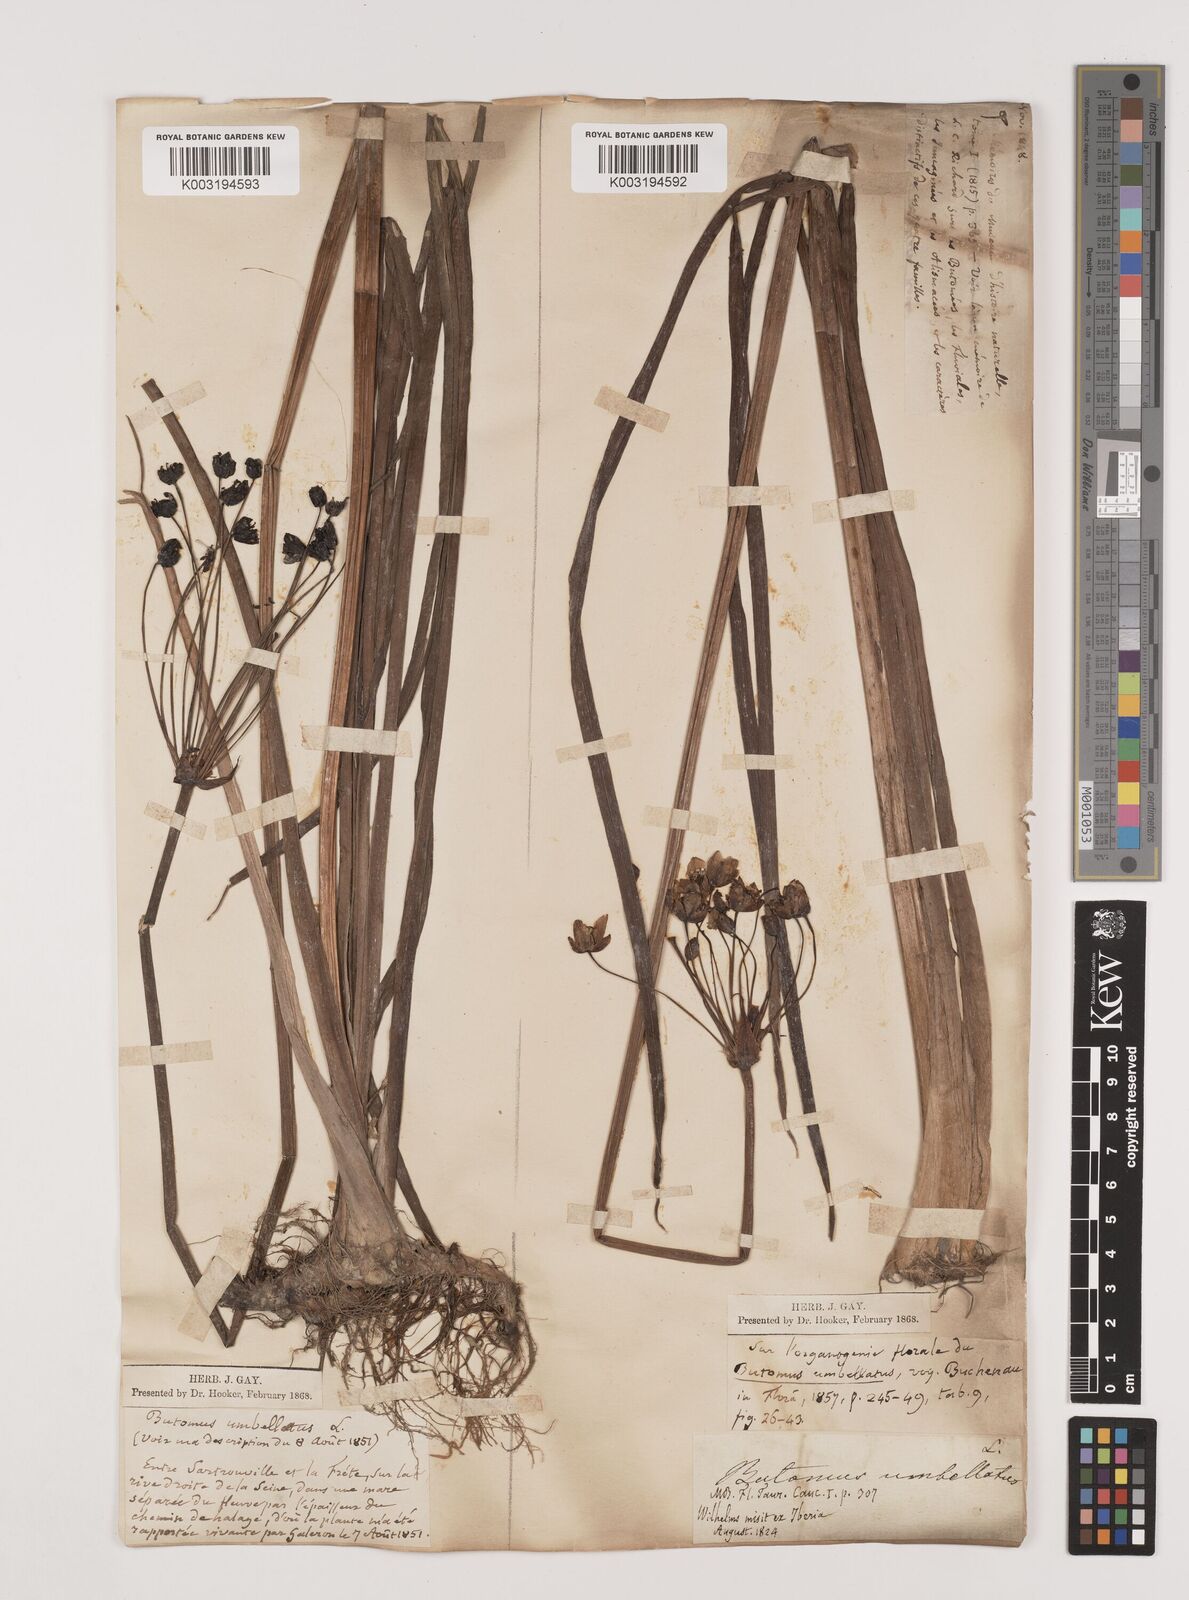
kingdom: Plantae
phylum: Tracheophyta
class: Liliopsida
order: Alismatales
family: Butomaceae
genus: Butomus
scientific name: Butomus umbellatus
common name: Flowering-rush
